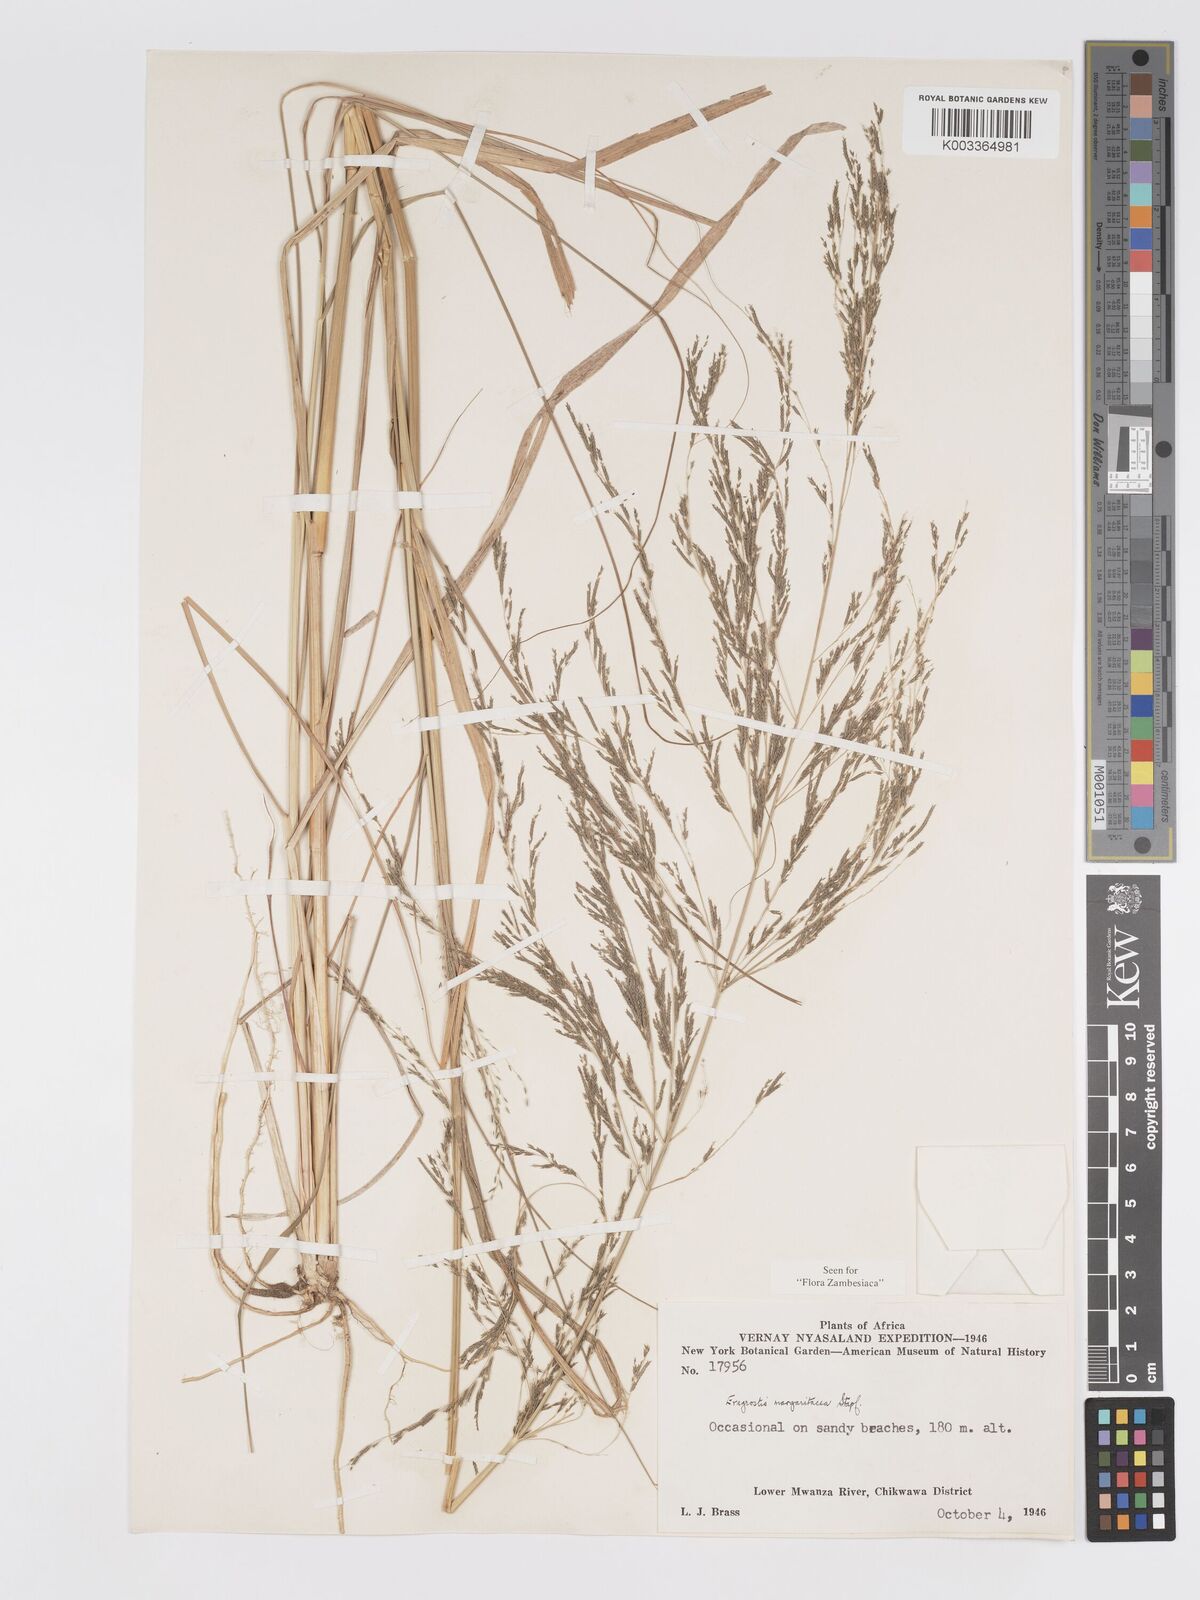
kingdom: Plantae
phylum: Tracheophyta
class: Liliopsida
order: Poales
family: Poaceae
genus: Eragrostis
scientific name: Eragrostis rotifer
